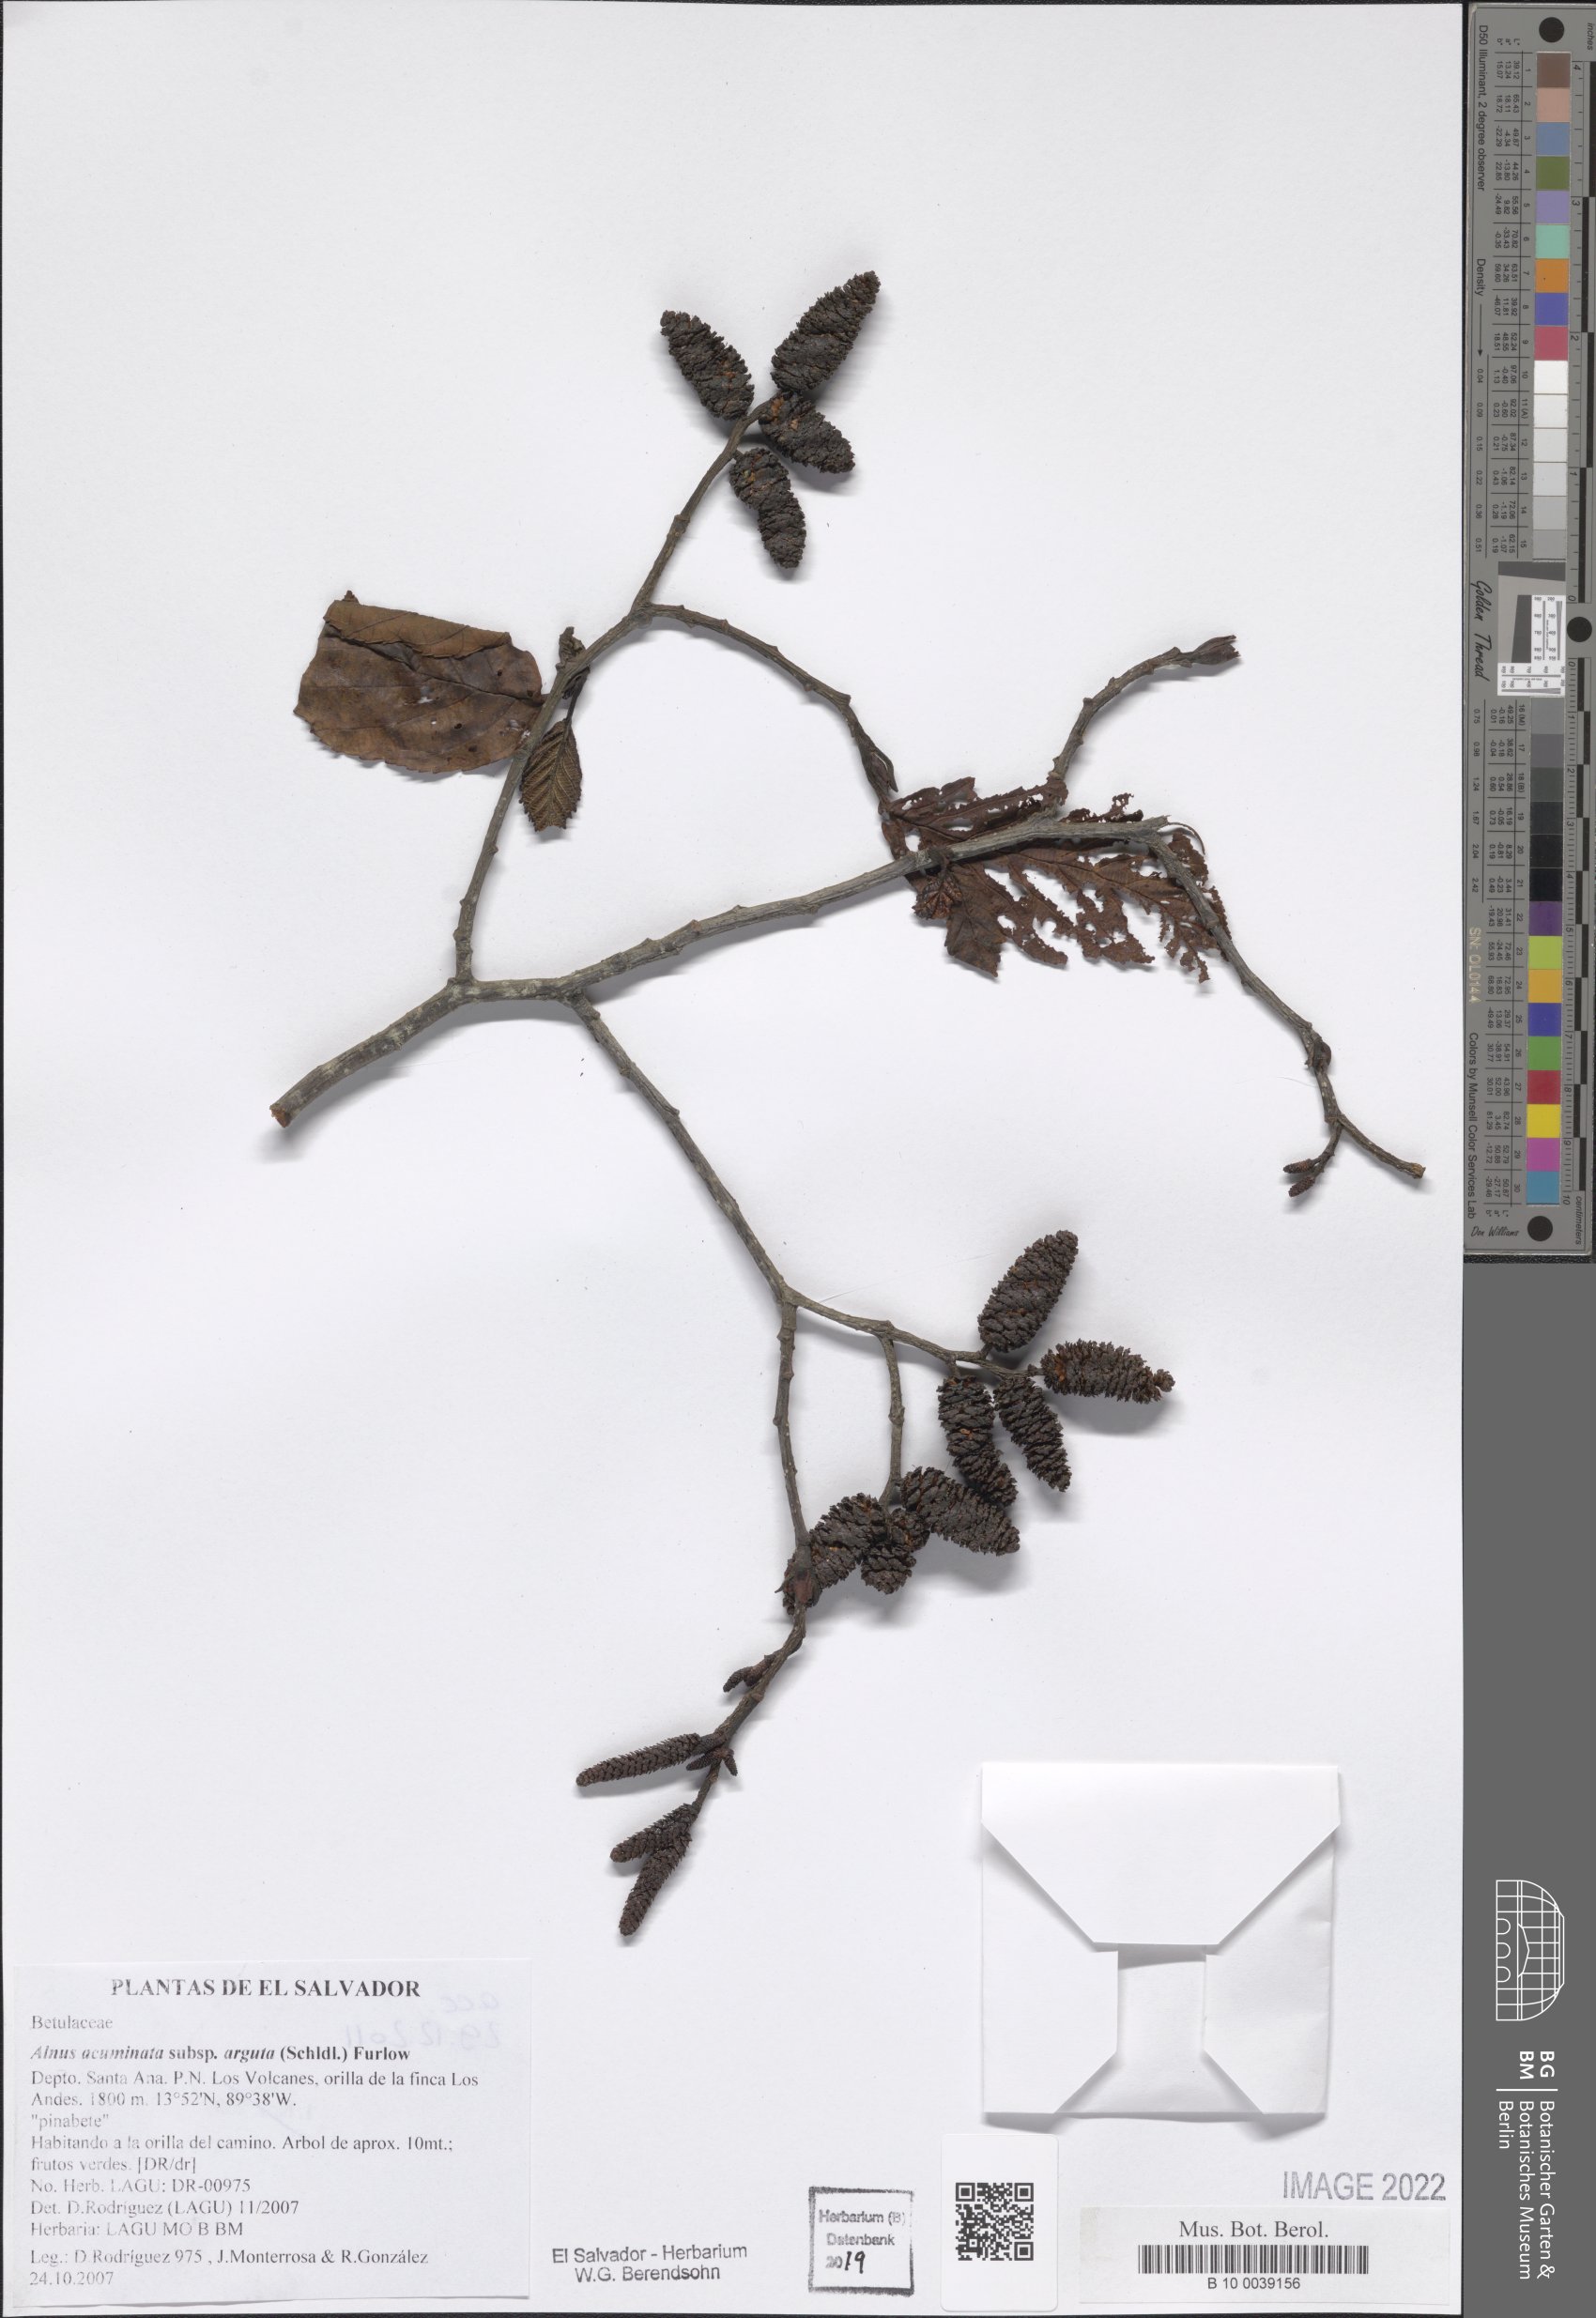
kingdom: Plantae
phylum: Tracheophyta
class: Magnoliopsida
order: Fagales
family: Betulaceae
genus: Alnus
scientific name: Alnus acuminata
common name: Alder
